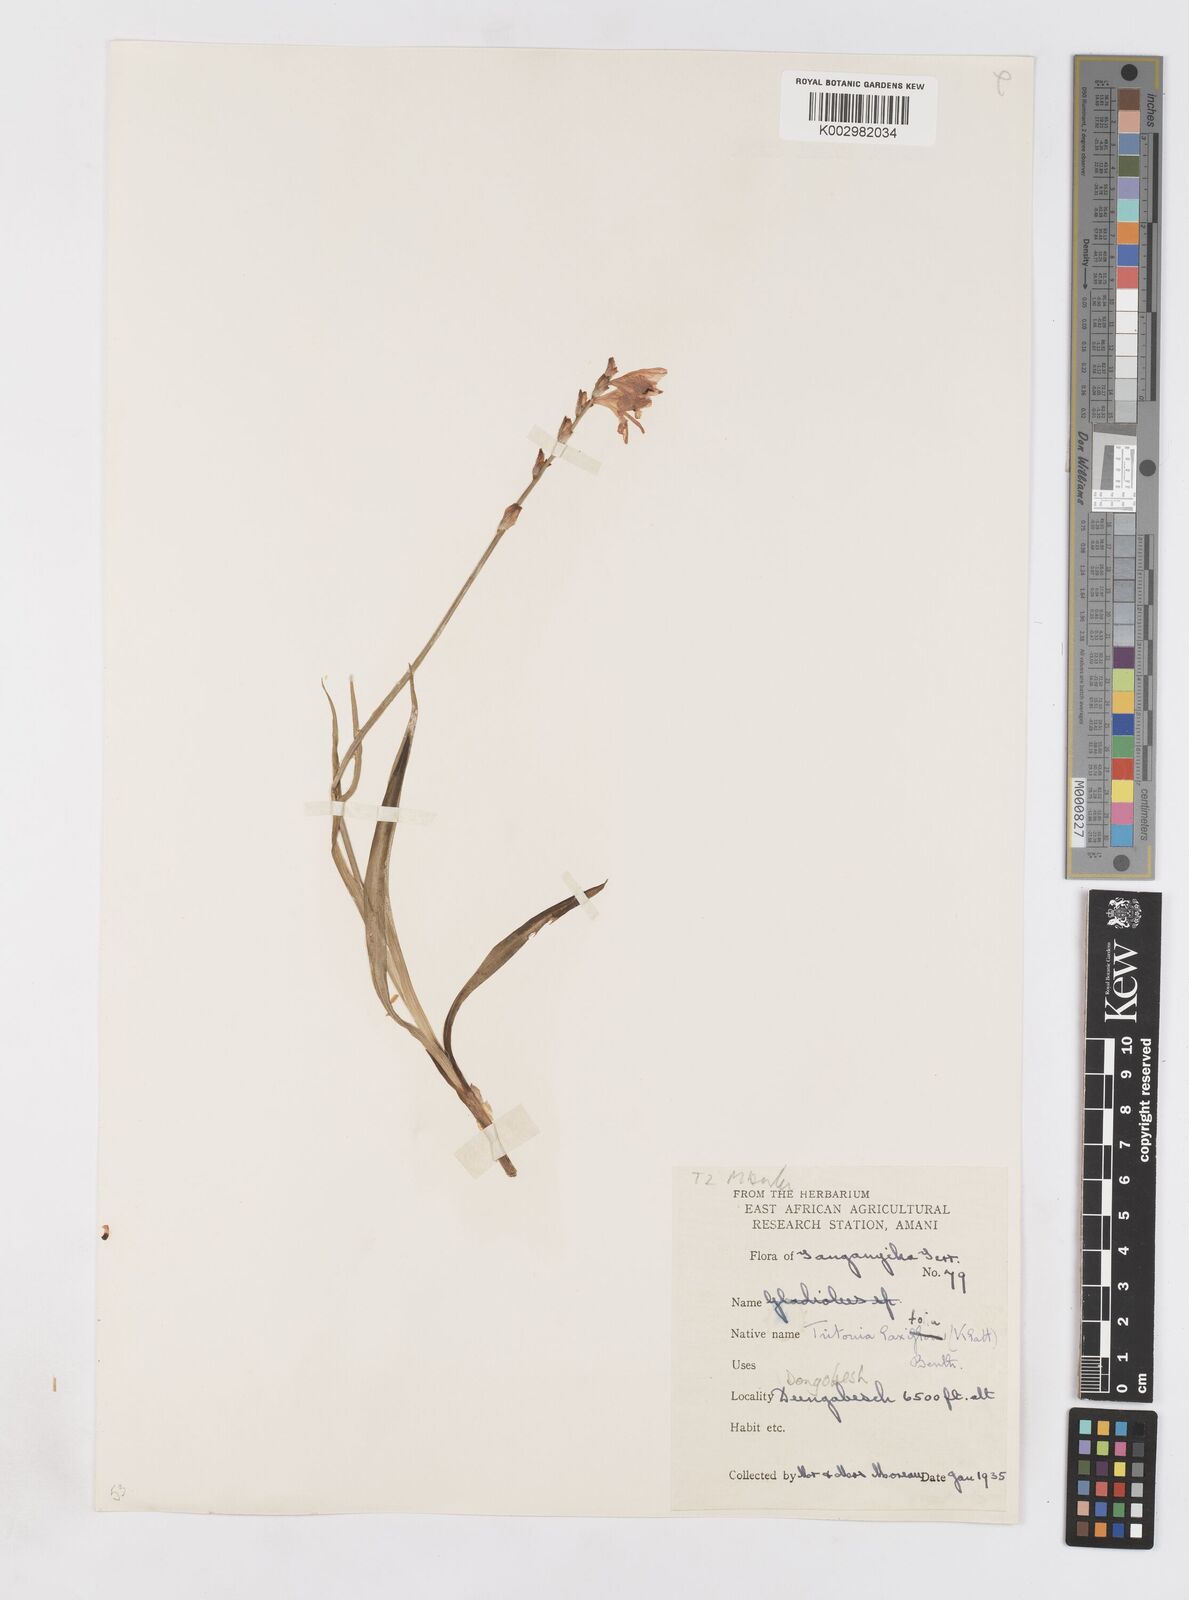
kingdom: Plantae
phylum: Tracheophyta
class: Liliopsida
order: Asparagales
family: Iridaceae
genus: Tritonia
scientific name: Tritonia laxifolia
